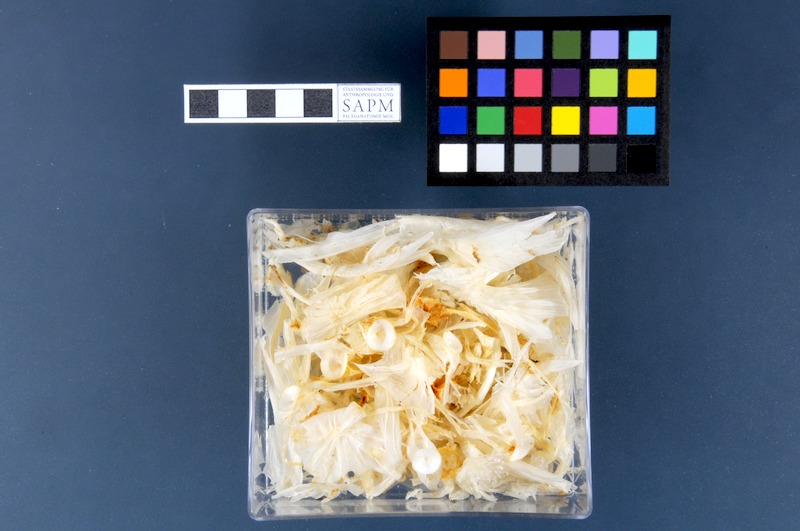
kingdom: Animalia
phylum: Chordata
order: Scorpaeniformes
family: Cyclopteridae
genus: Cyclopterus
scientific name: Cyclopterus lumpus
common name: Lumpsucker
